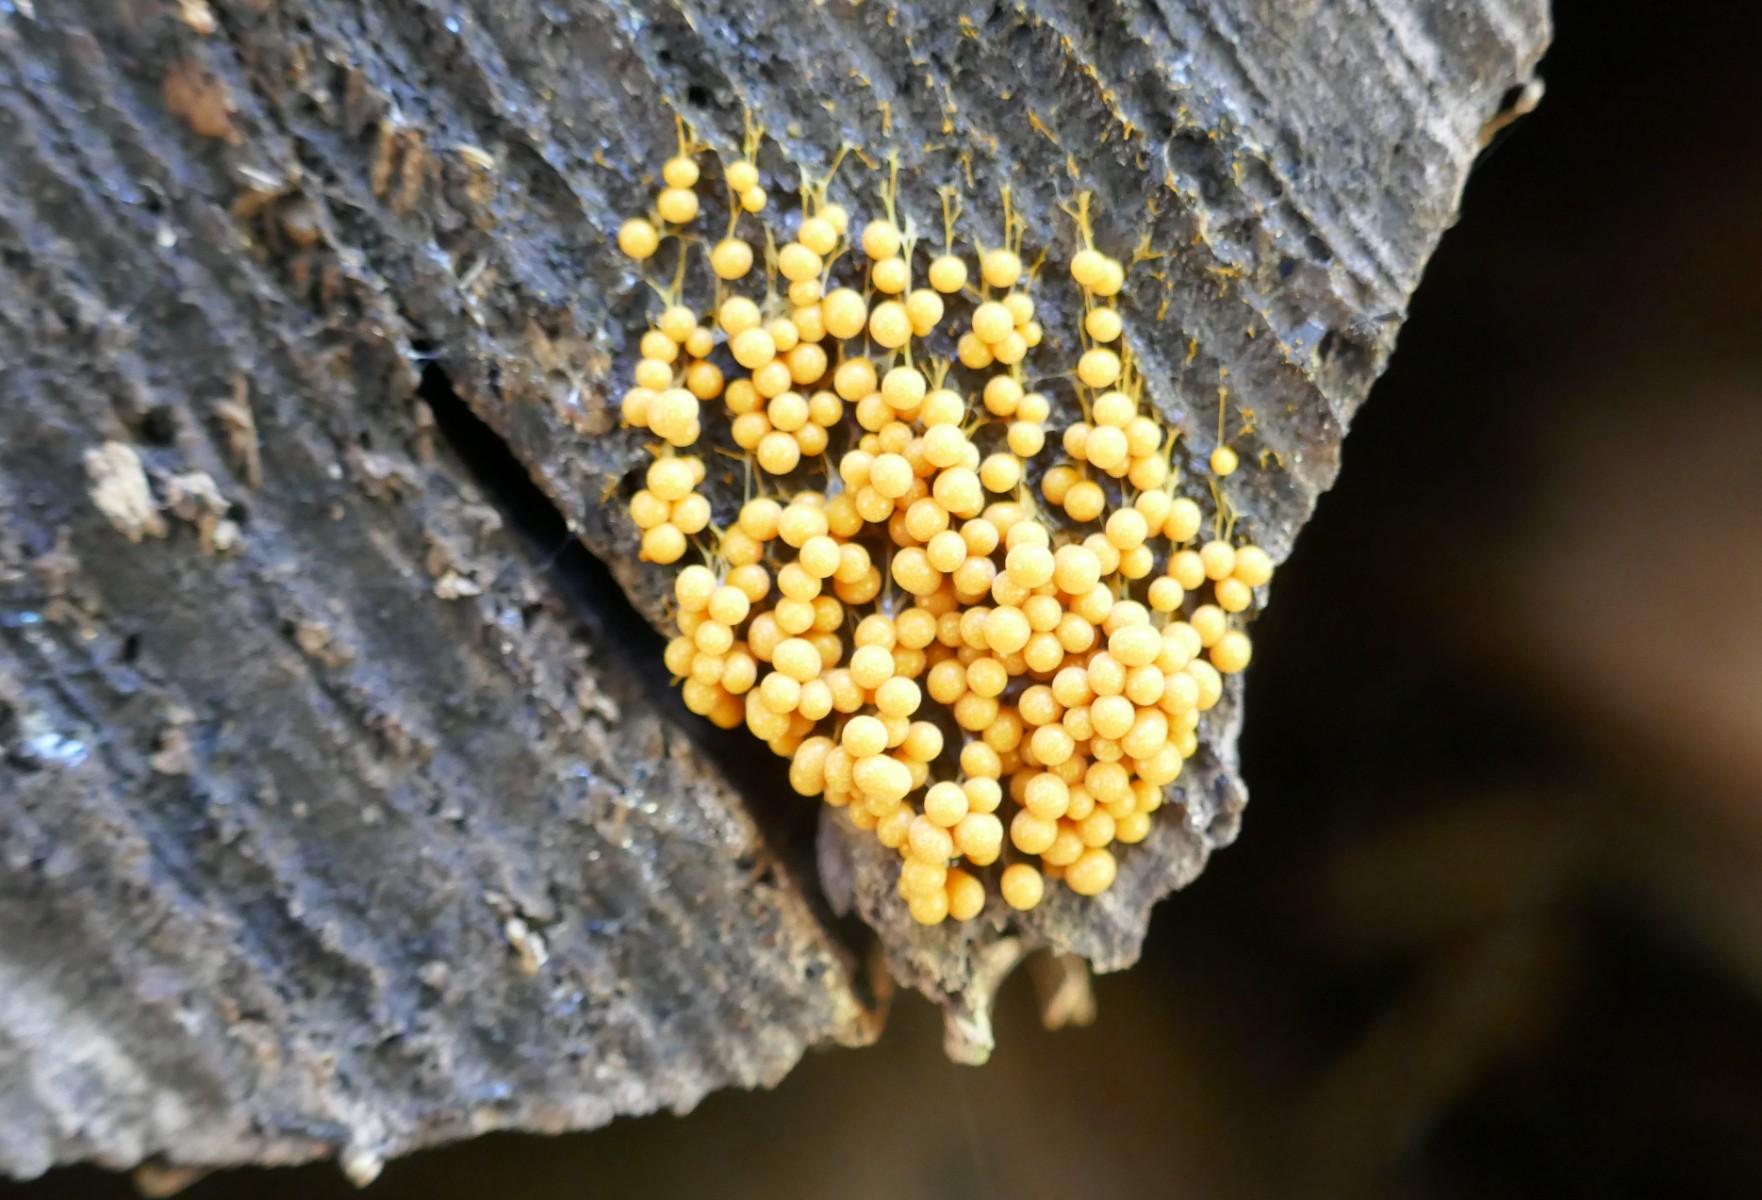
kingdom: Protozoa
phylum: Mycetozoa
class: Myxomycetes
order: Physarales
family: Physaraceae
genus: Badhamia
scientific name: Badhamia utricularis
